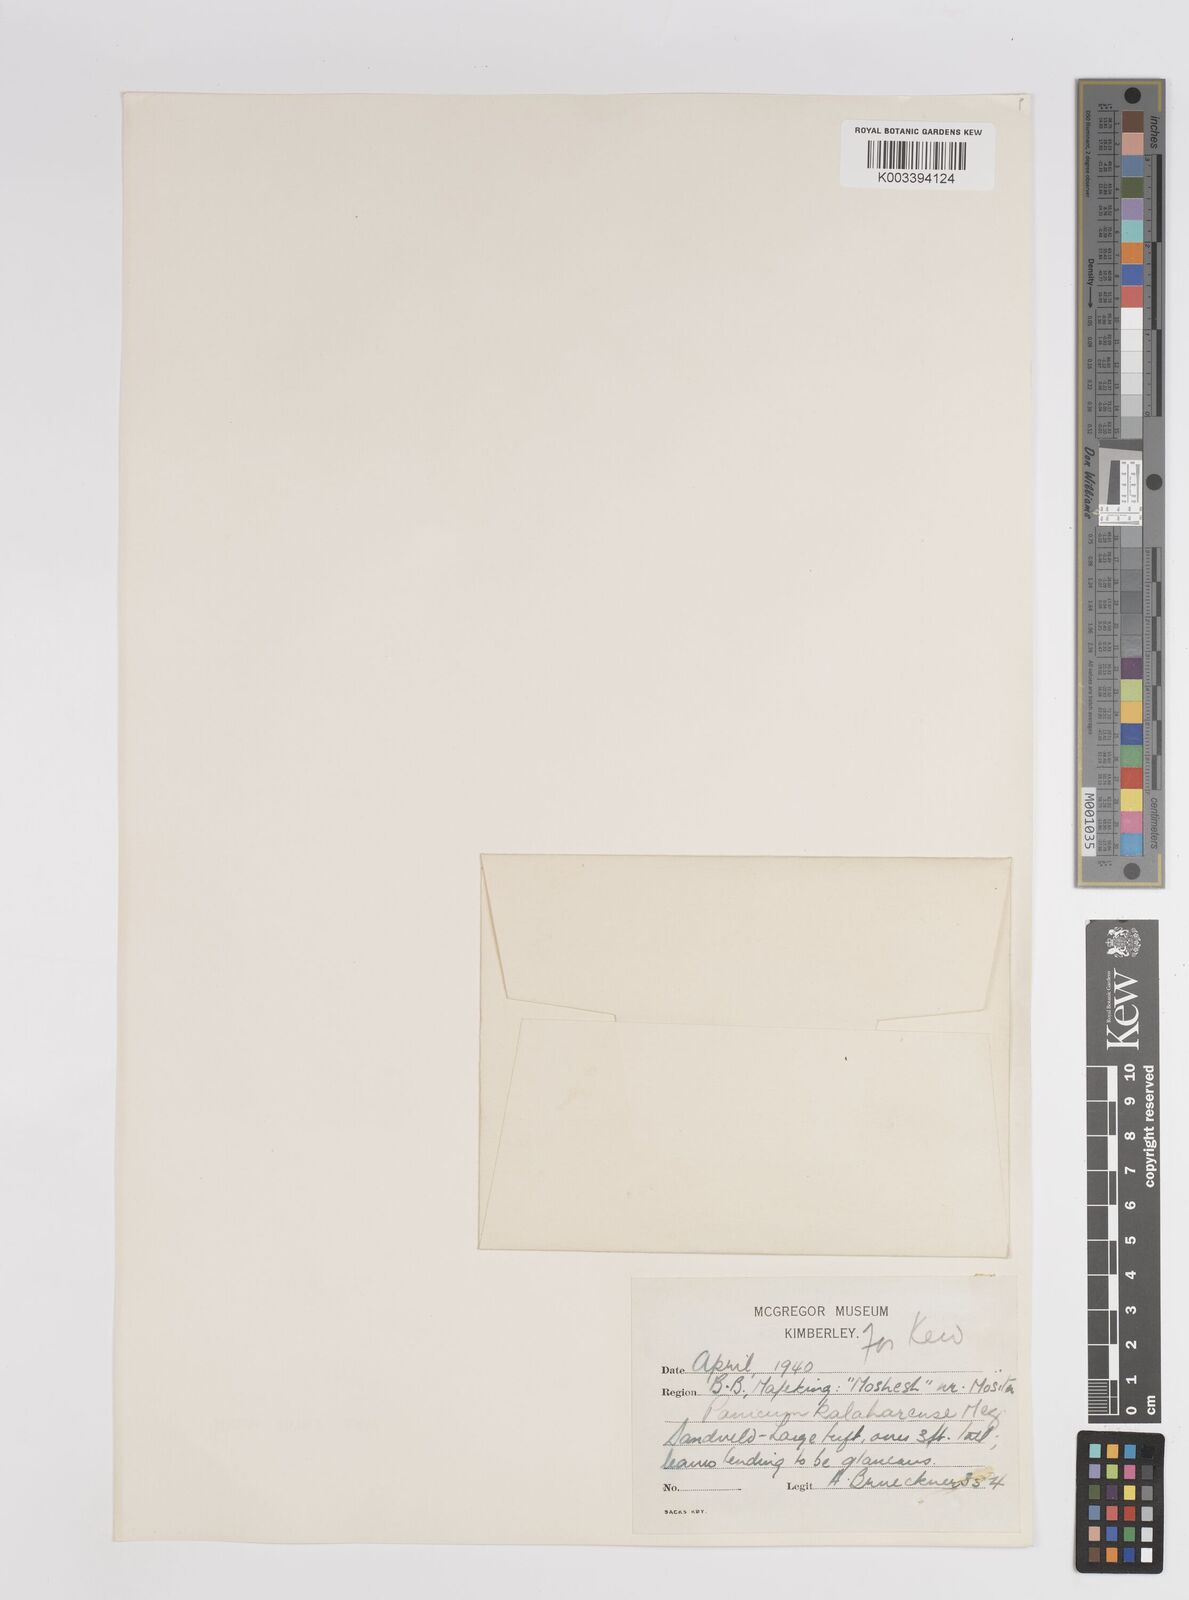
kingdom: Plantae
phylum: Tracheophyta
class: Liliopsida
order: Poales
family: Poaceae
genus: Panicum
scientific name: Panicum kalaharense
